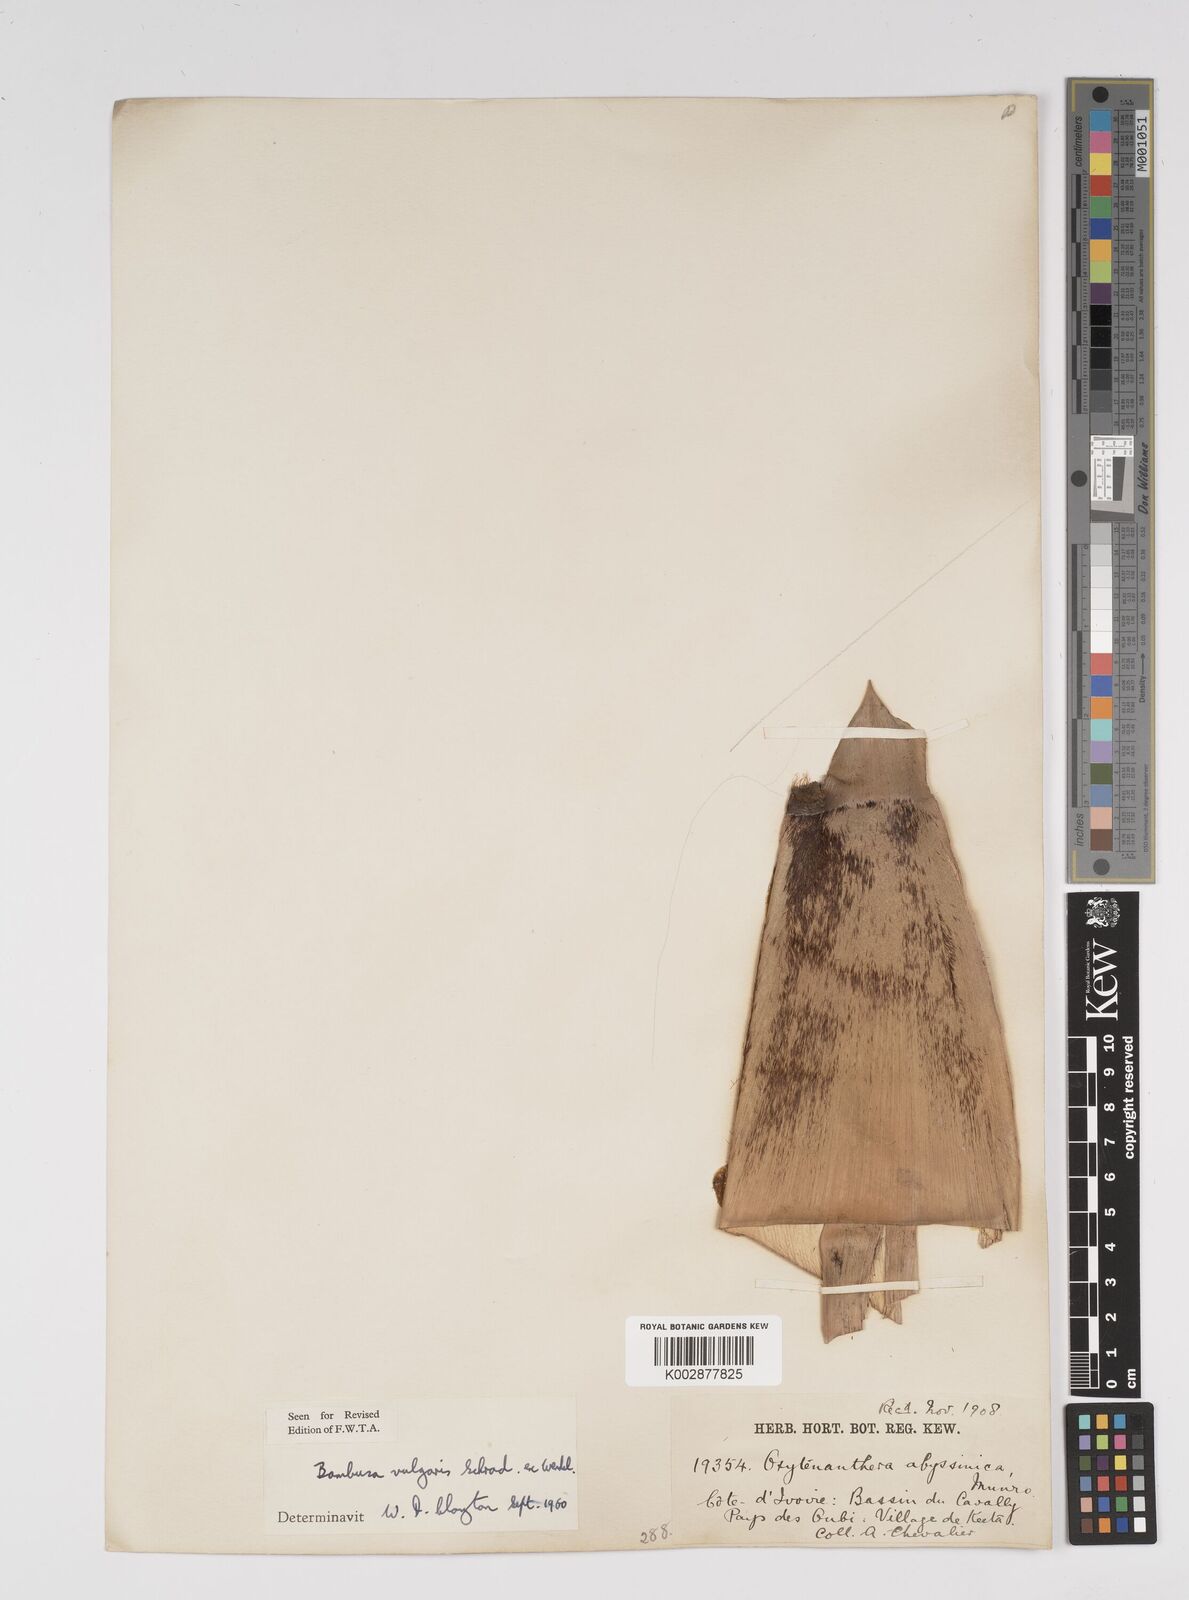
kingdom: Plantae
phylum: Tracheophyta
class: Liliopsida
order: Poales
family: Poaceae
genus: Bambusa
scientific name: Bambusa vulgaris
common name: Common bamboo
